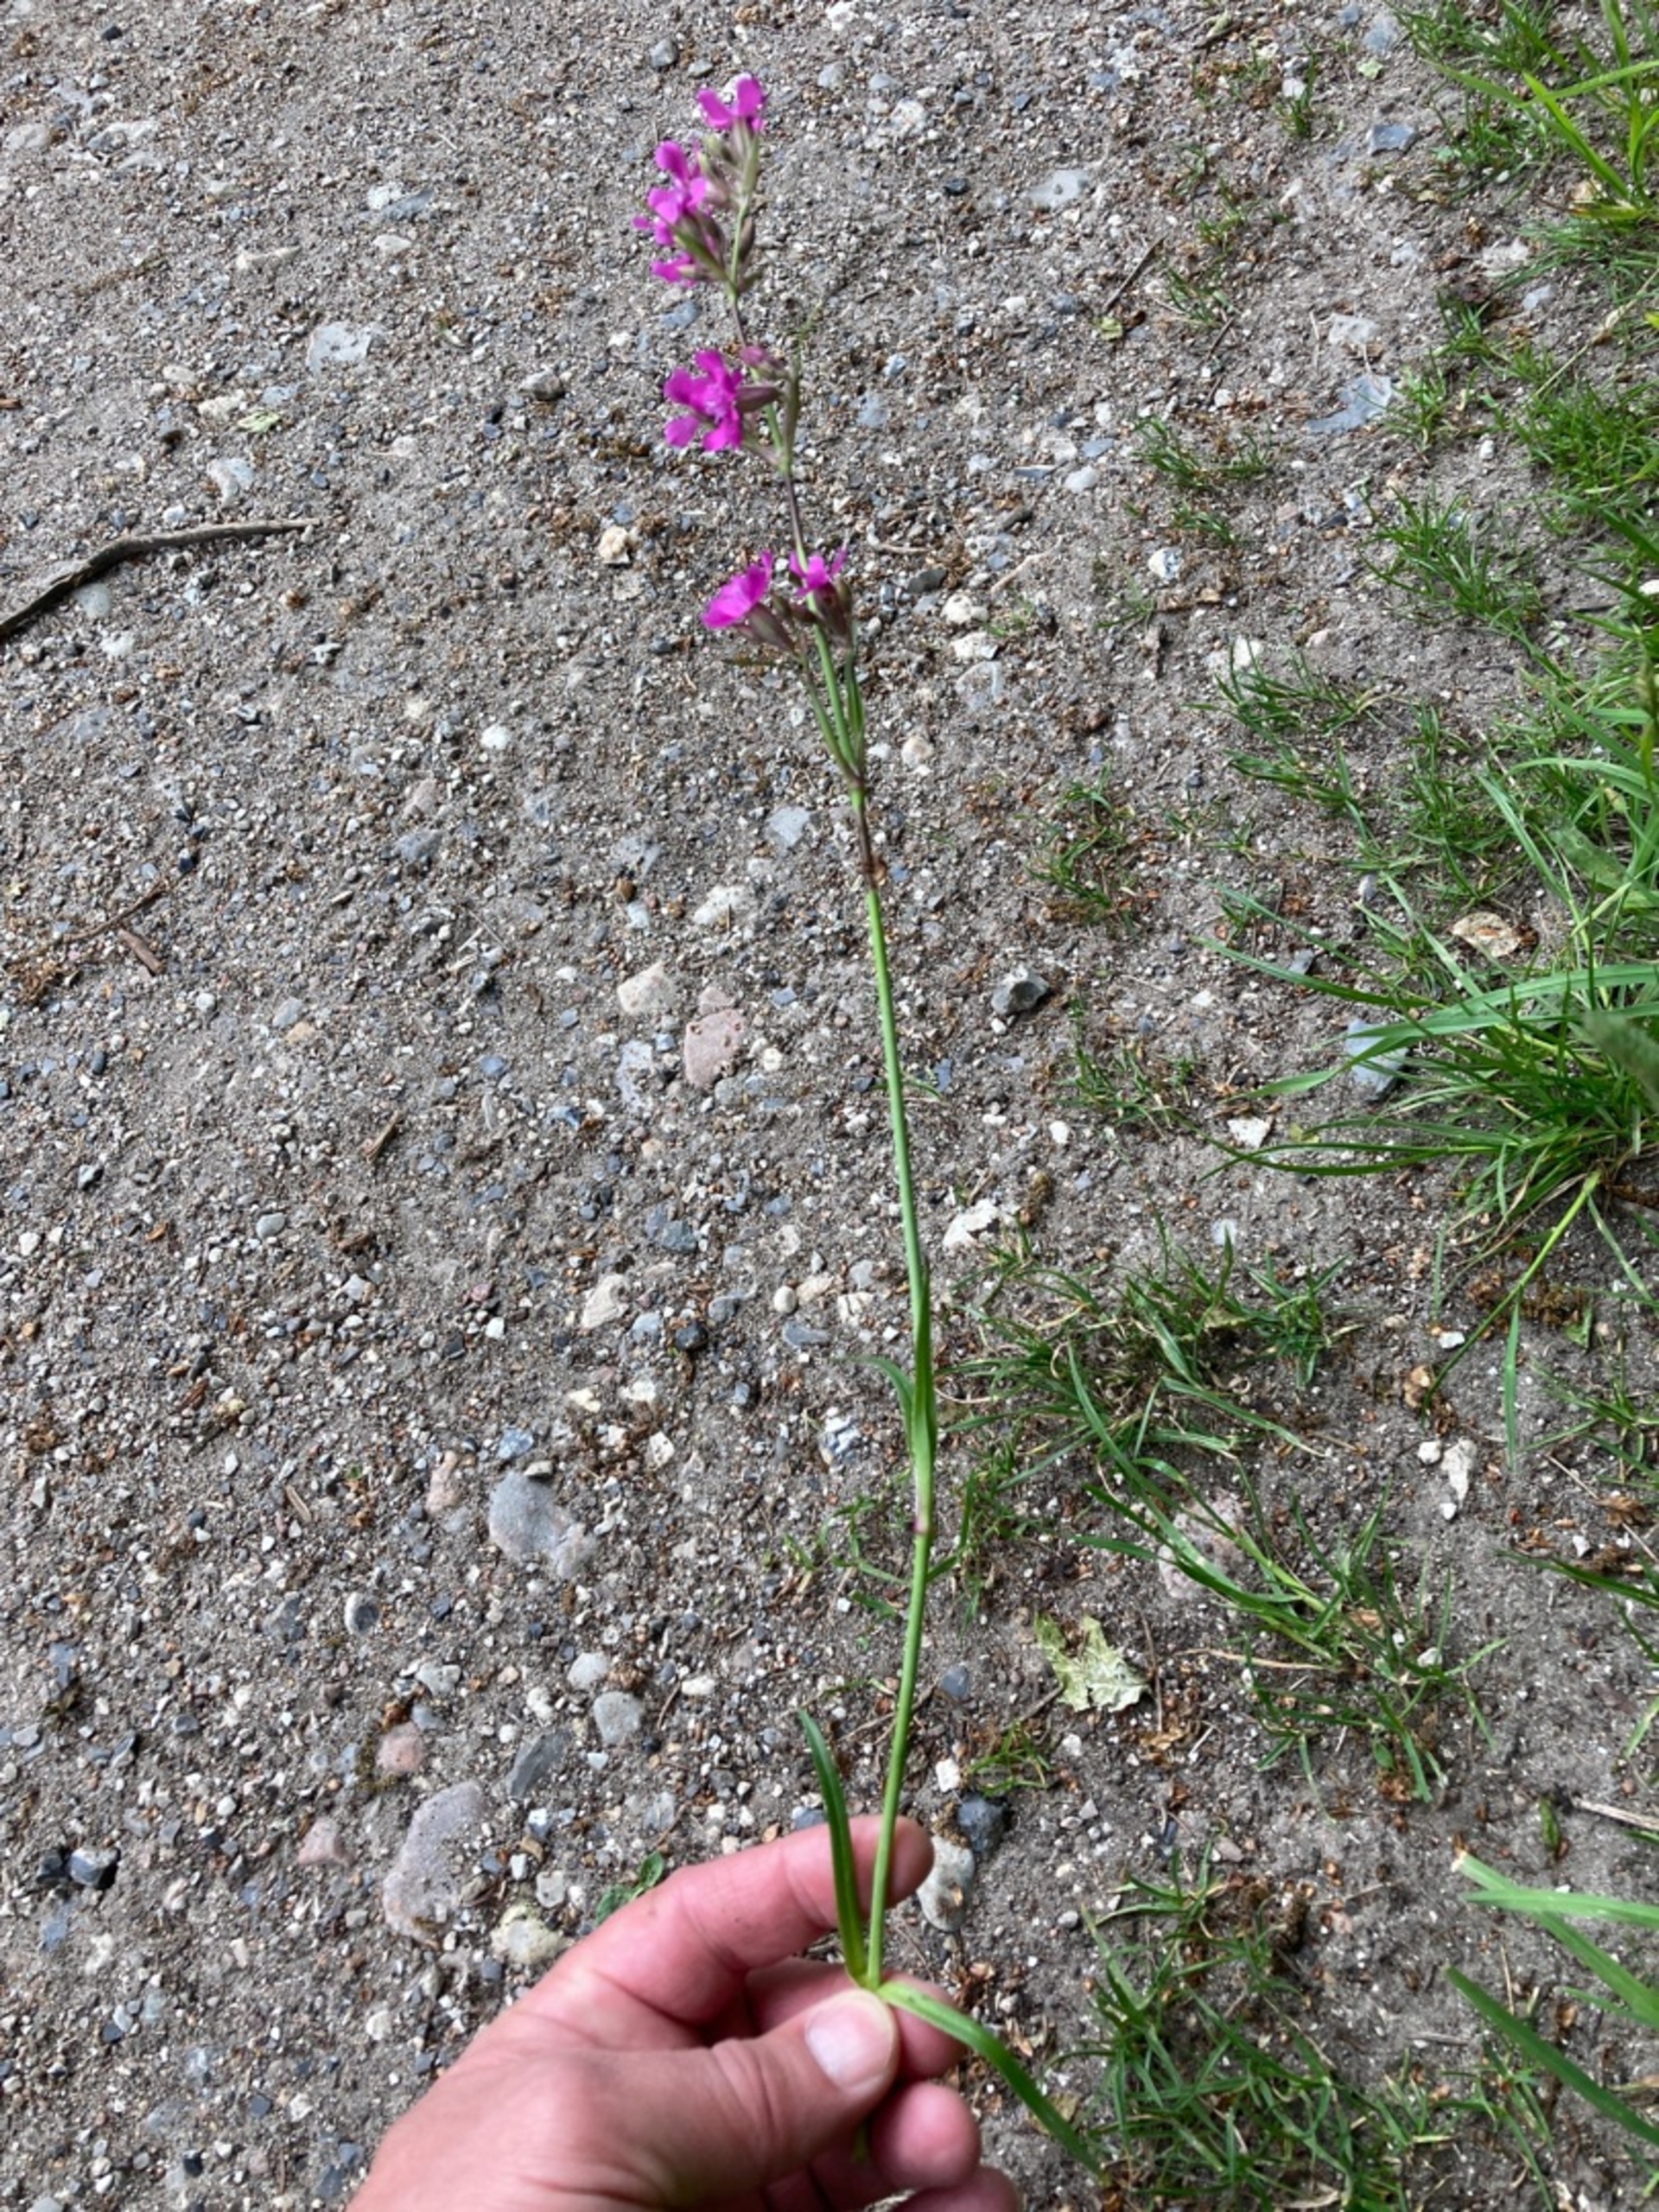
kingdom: Plantae
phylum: Tracheophyta
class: Magnoliopsida
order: Caryophyllales
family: Caryophyllaceae
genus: Viscaria
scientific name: Viscaria vulgaris
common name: Tjærenellike
